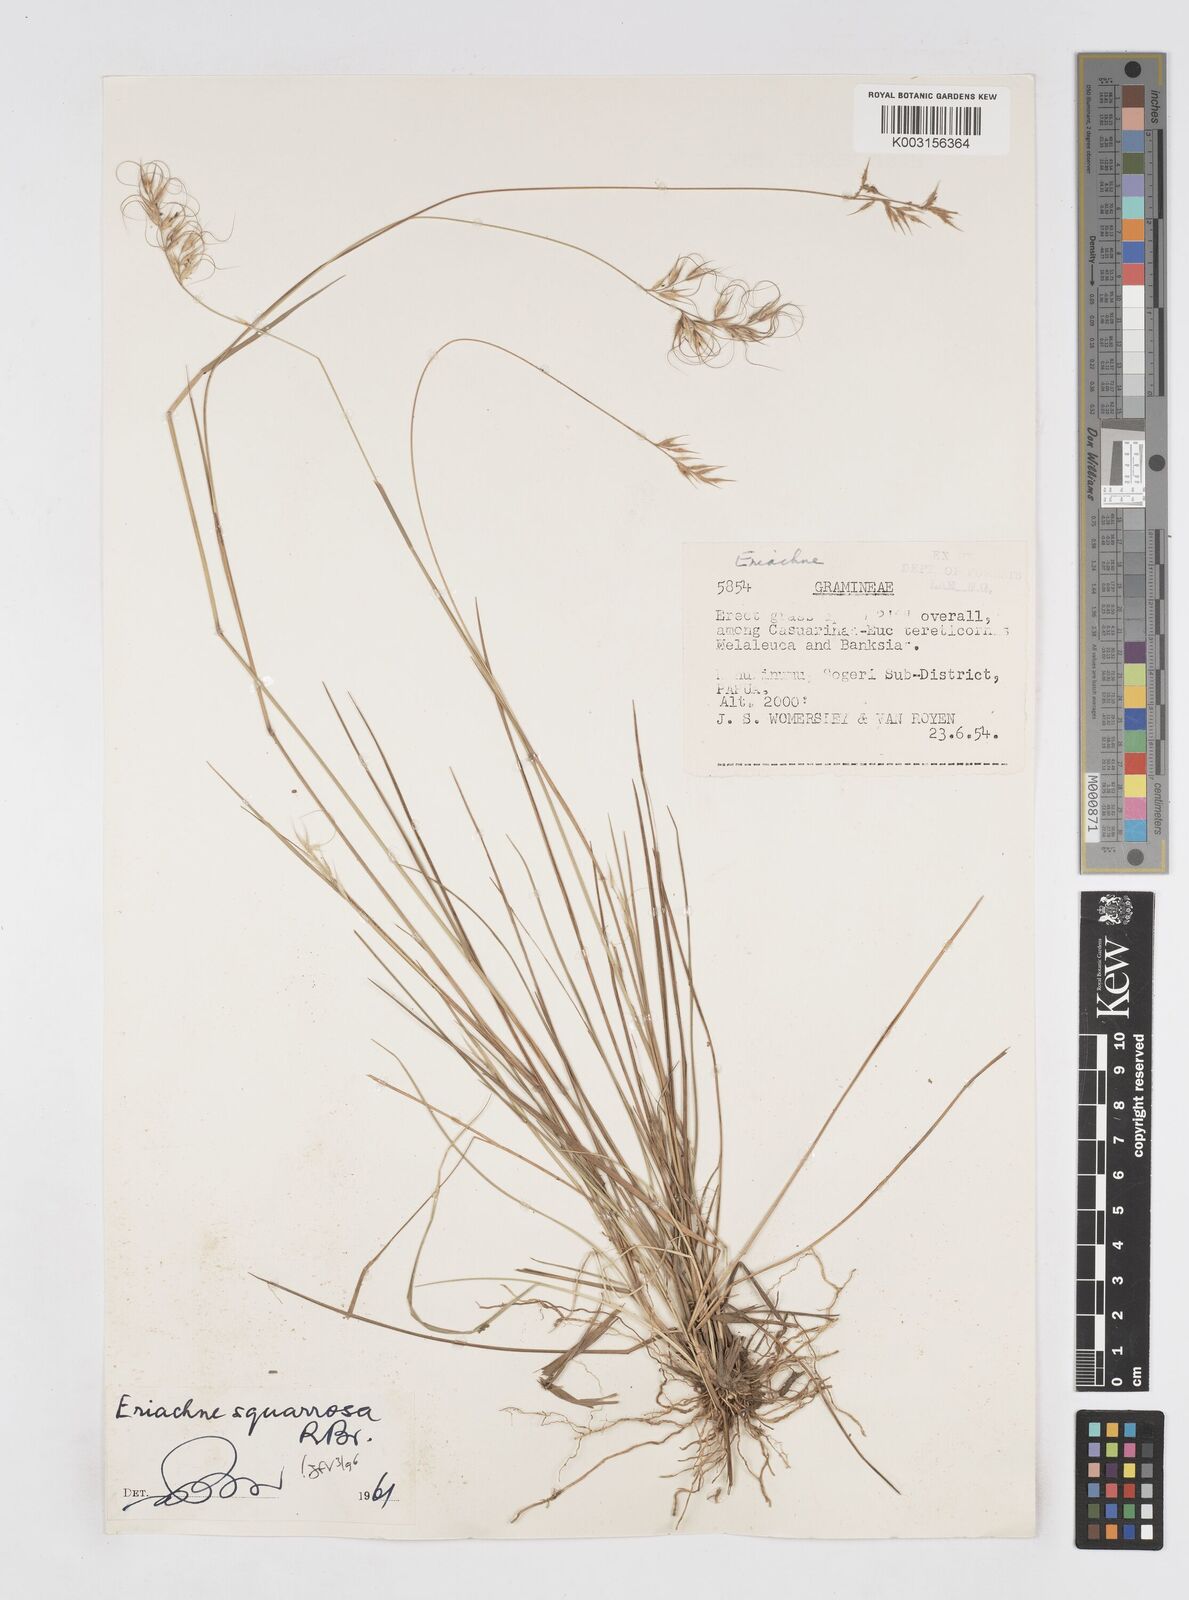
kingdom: Plantae
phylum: Tracheophyta
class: Liliopsida
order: Poales
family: Poaceae
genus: Eriachne
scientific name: Eriachne squarrosa
